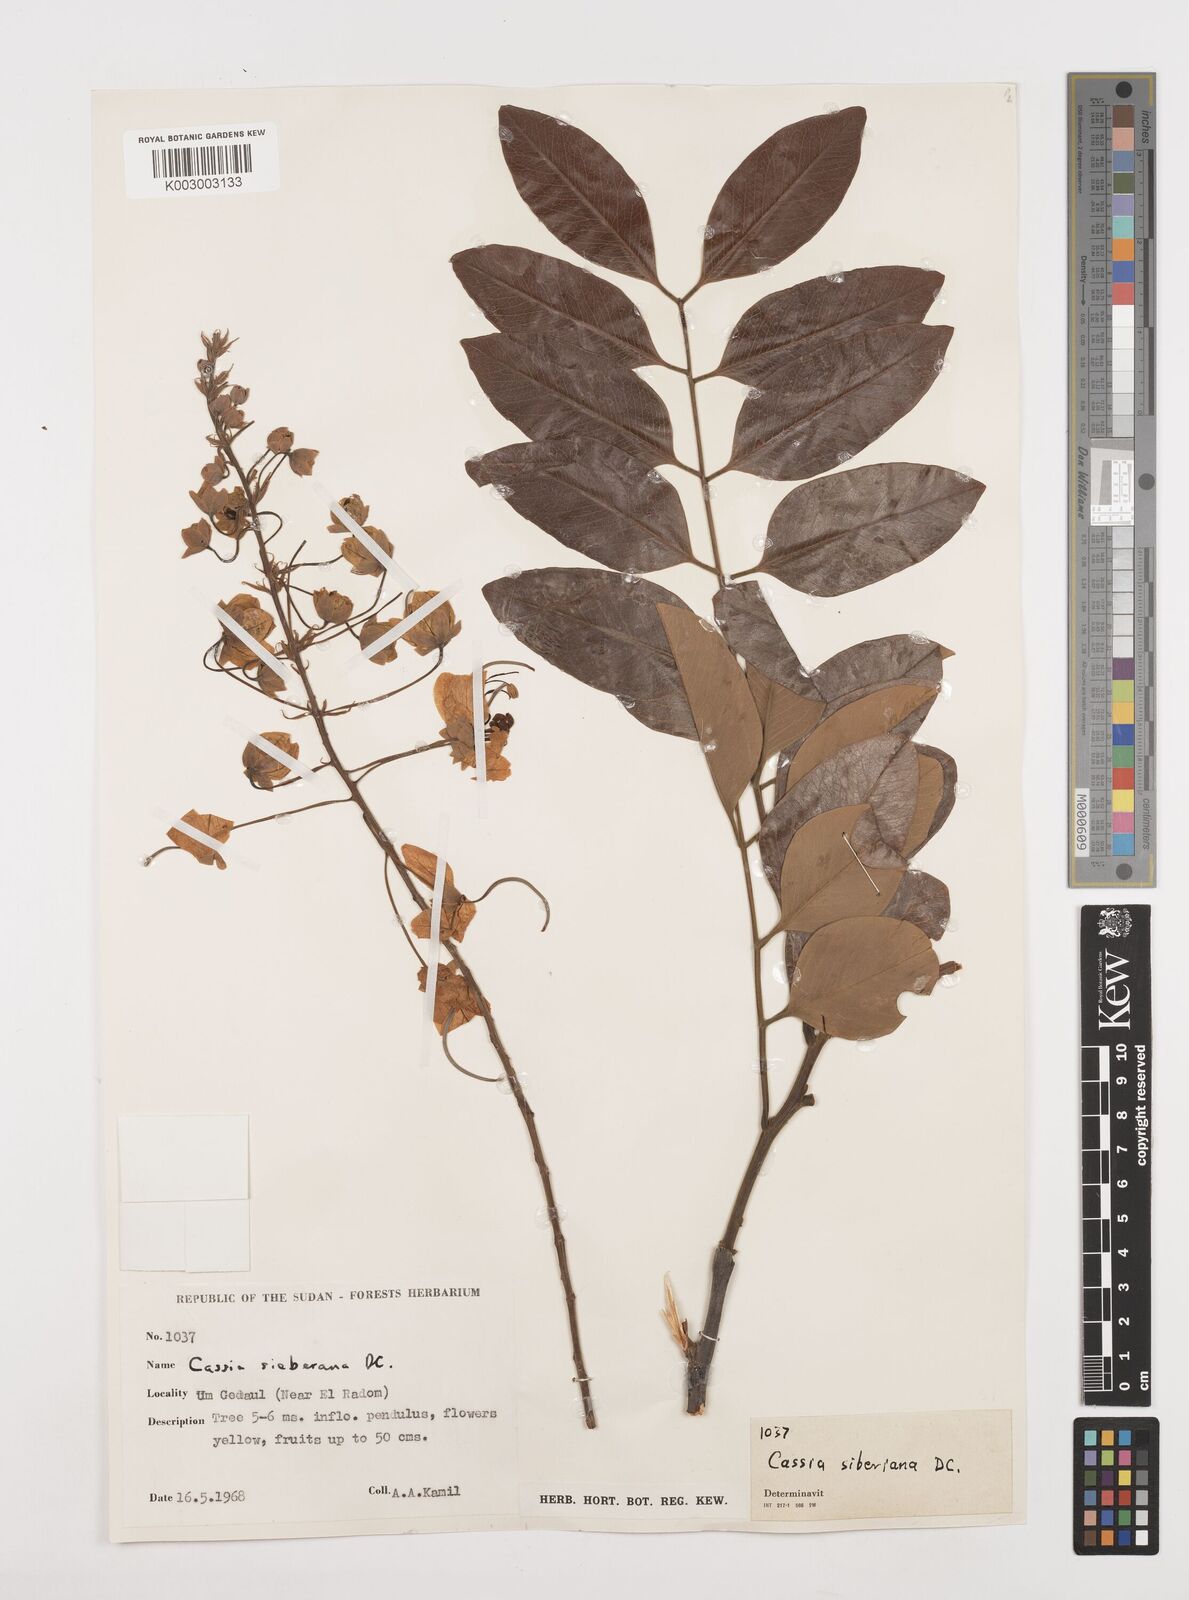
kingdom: Plantae
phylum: Tracheophyta
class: Magnoliopsida
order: Fabales
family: Fabaceae
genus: Cassia
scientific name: Cassia sieberiana
